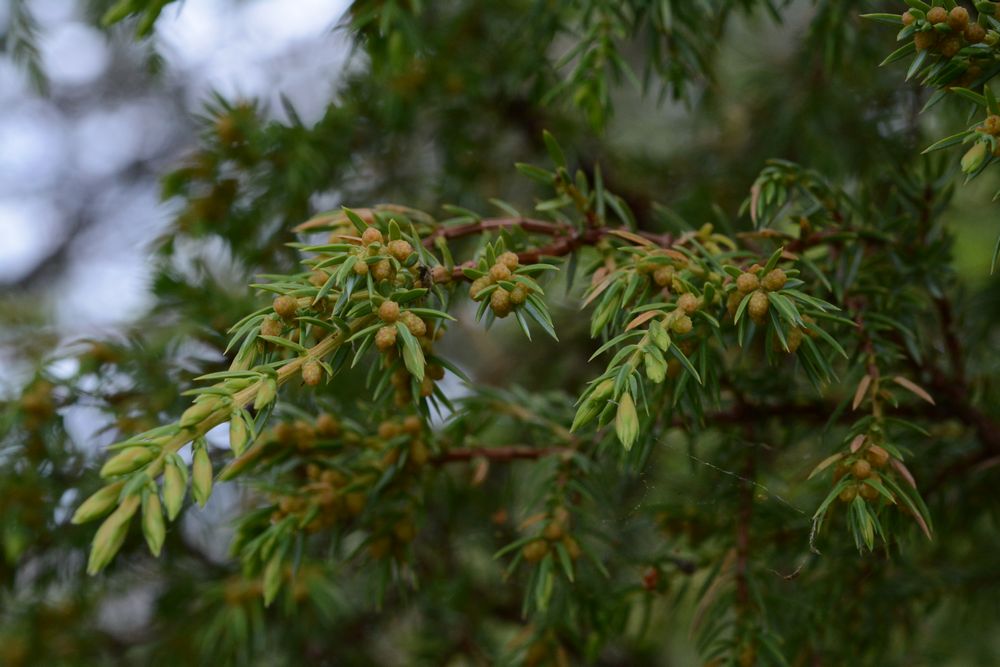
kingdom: Plantae
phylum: Tracheophyta
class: Pinopsida
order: Pinales
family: Cupressaceae
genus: Juniperus
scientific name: Juniperus communis
